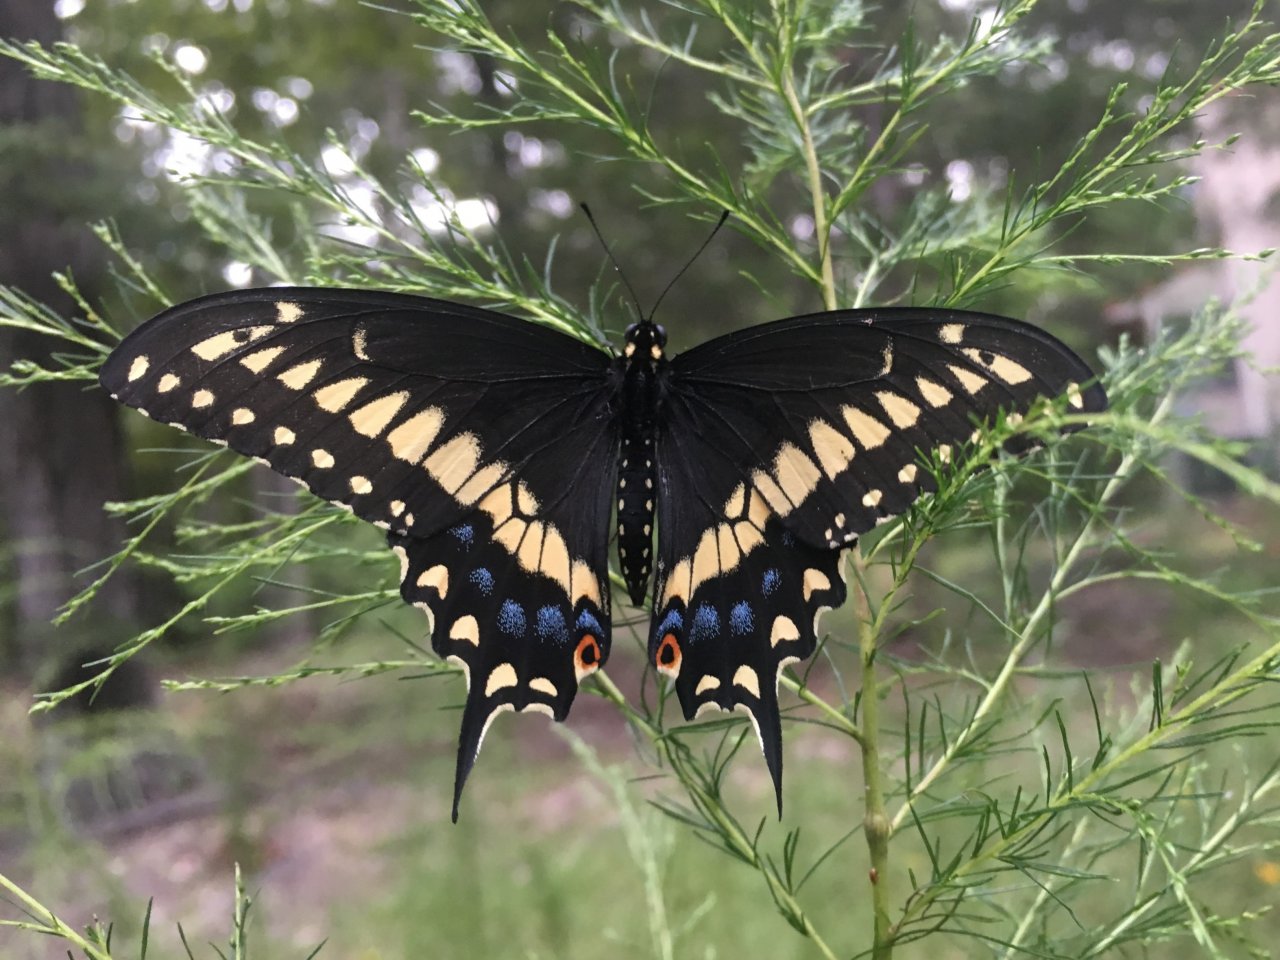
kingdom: Animalia
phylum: Arthropoda
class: Insecta
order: Lepidoptera
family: Papilionidae
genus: Papilio
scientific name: Papilio polyxenes
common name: Black Swallowtail
